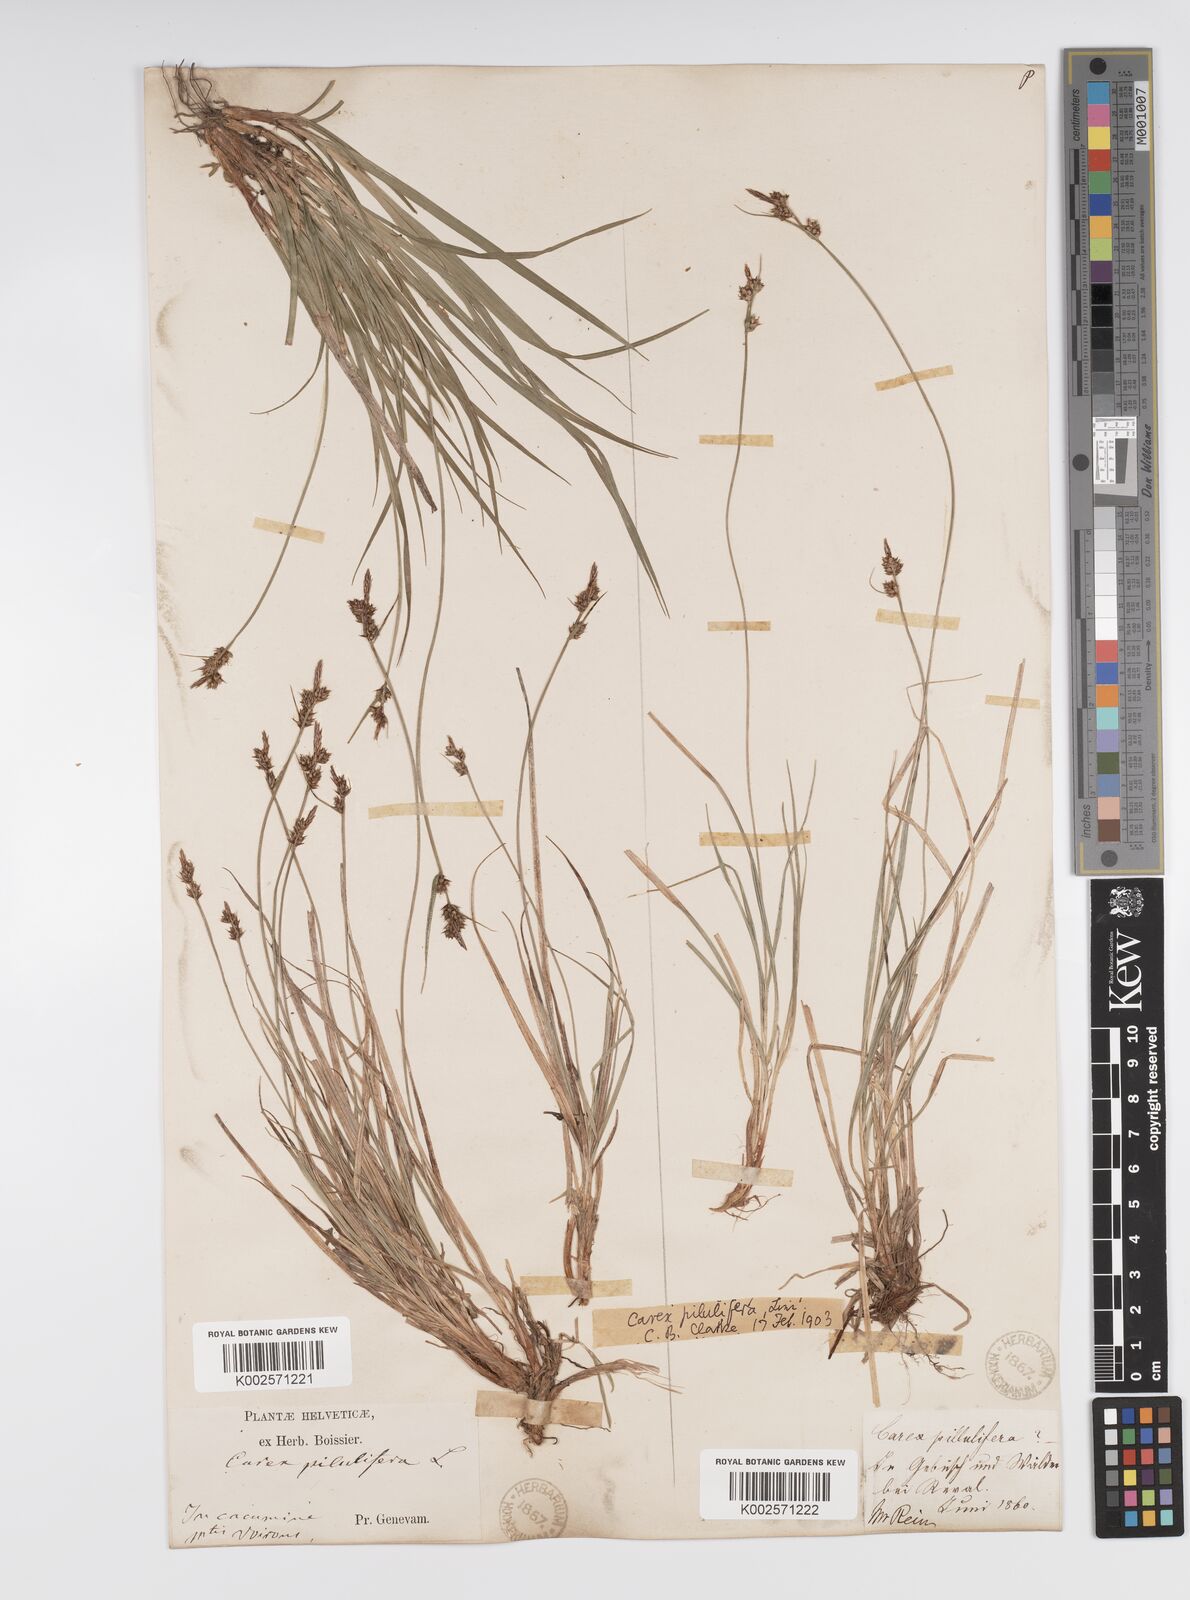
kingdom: Plantae
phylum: Tracheophyta
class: Liliopsida
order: Poales
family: Cyperaceae
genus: Carex
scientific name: Carex pilulifera
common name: Pill sedge
